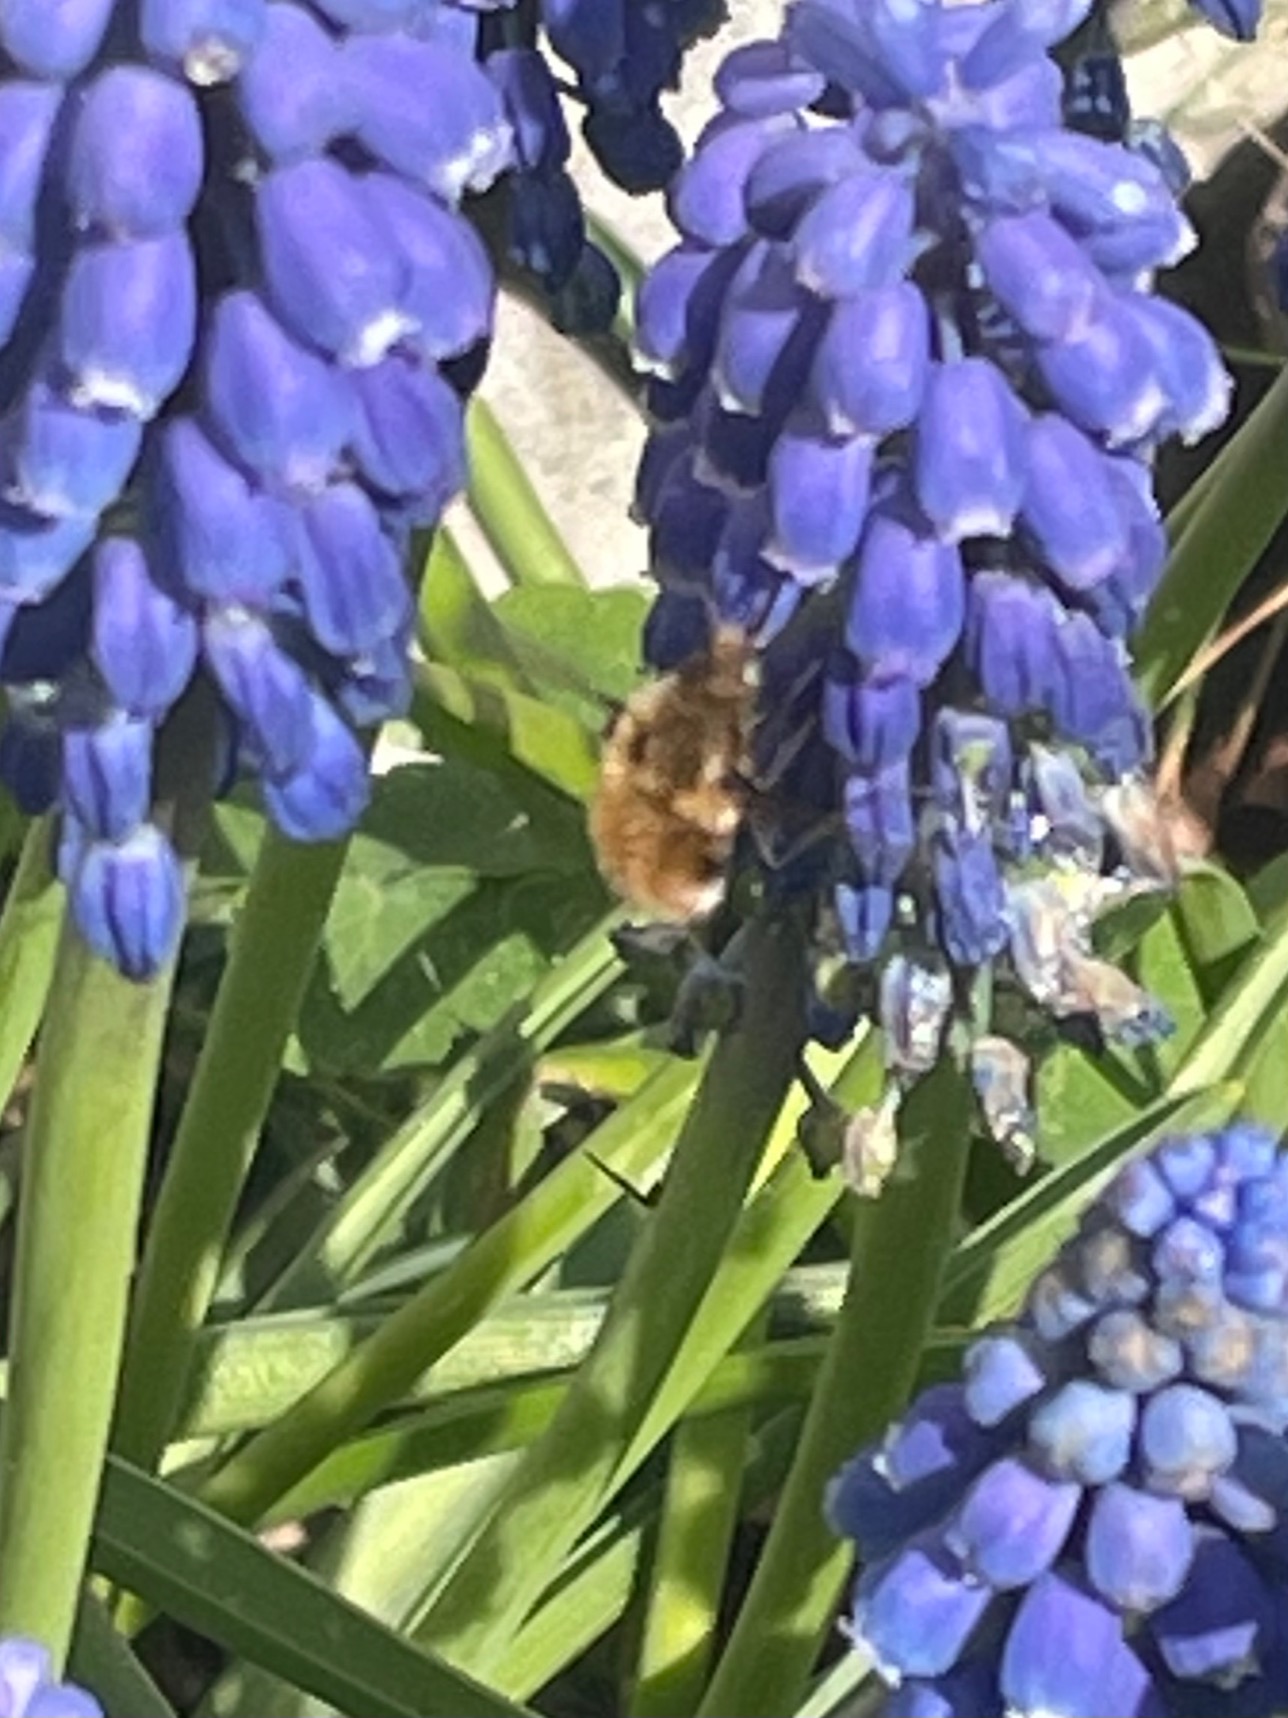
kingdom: Animalia
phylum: Arthropoda
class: Insecta
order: Diptera
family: Bombyliidae
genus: Bombylius
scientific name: Bombylius major
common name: Stor humleflue
